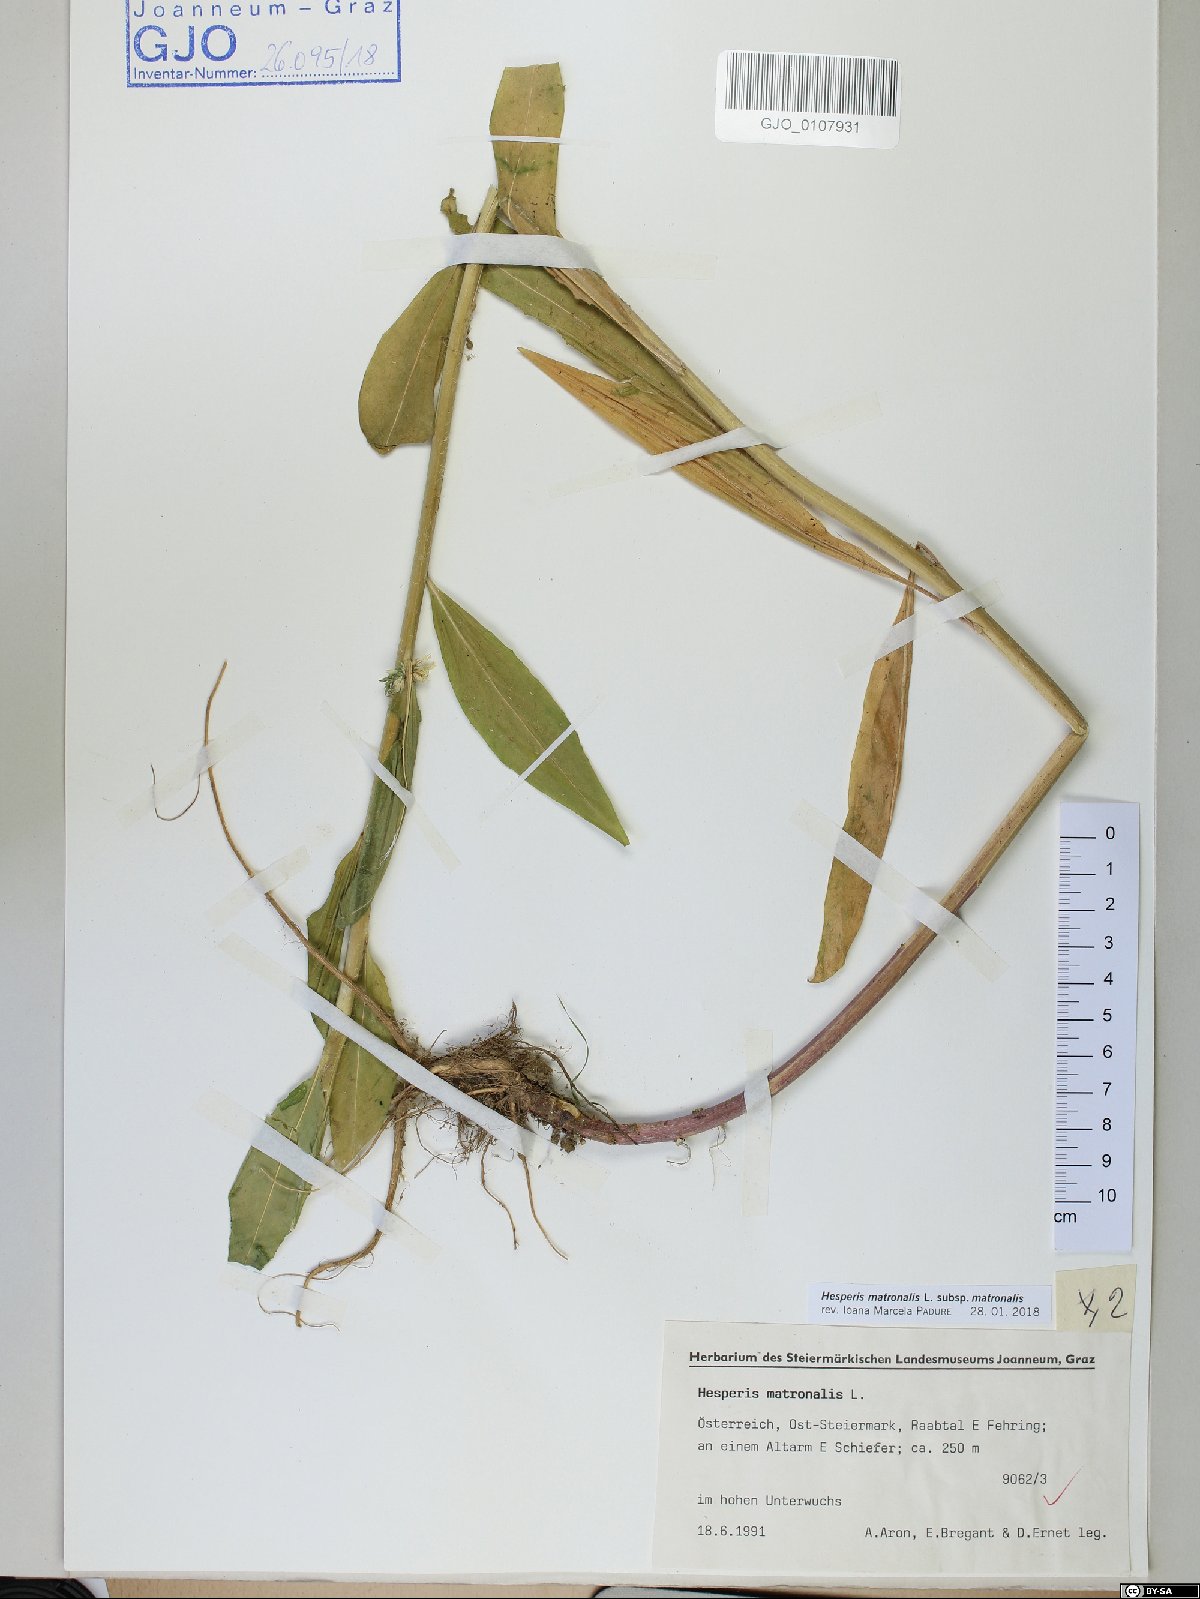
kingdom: Plantae
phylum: Tracheophyta
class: Magnoliopsida
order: Brassicales
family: Brassicaceae
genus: Hesperis
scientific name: Hesperis matronalis
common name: Dame's-violet
